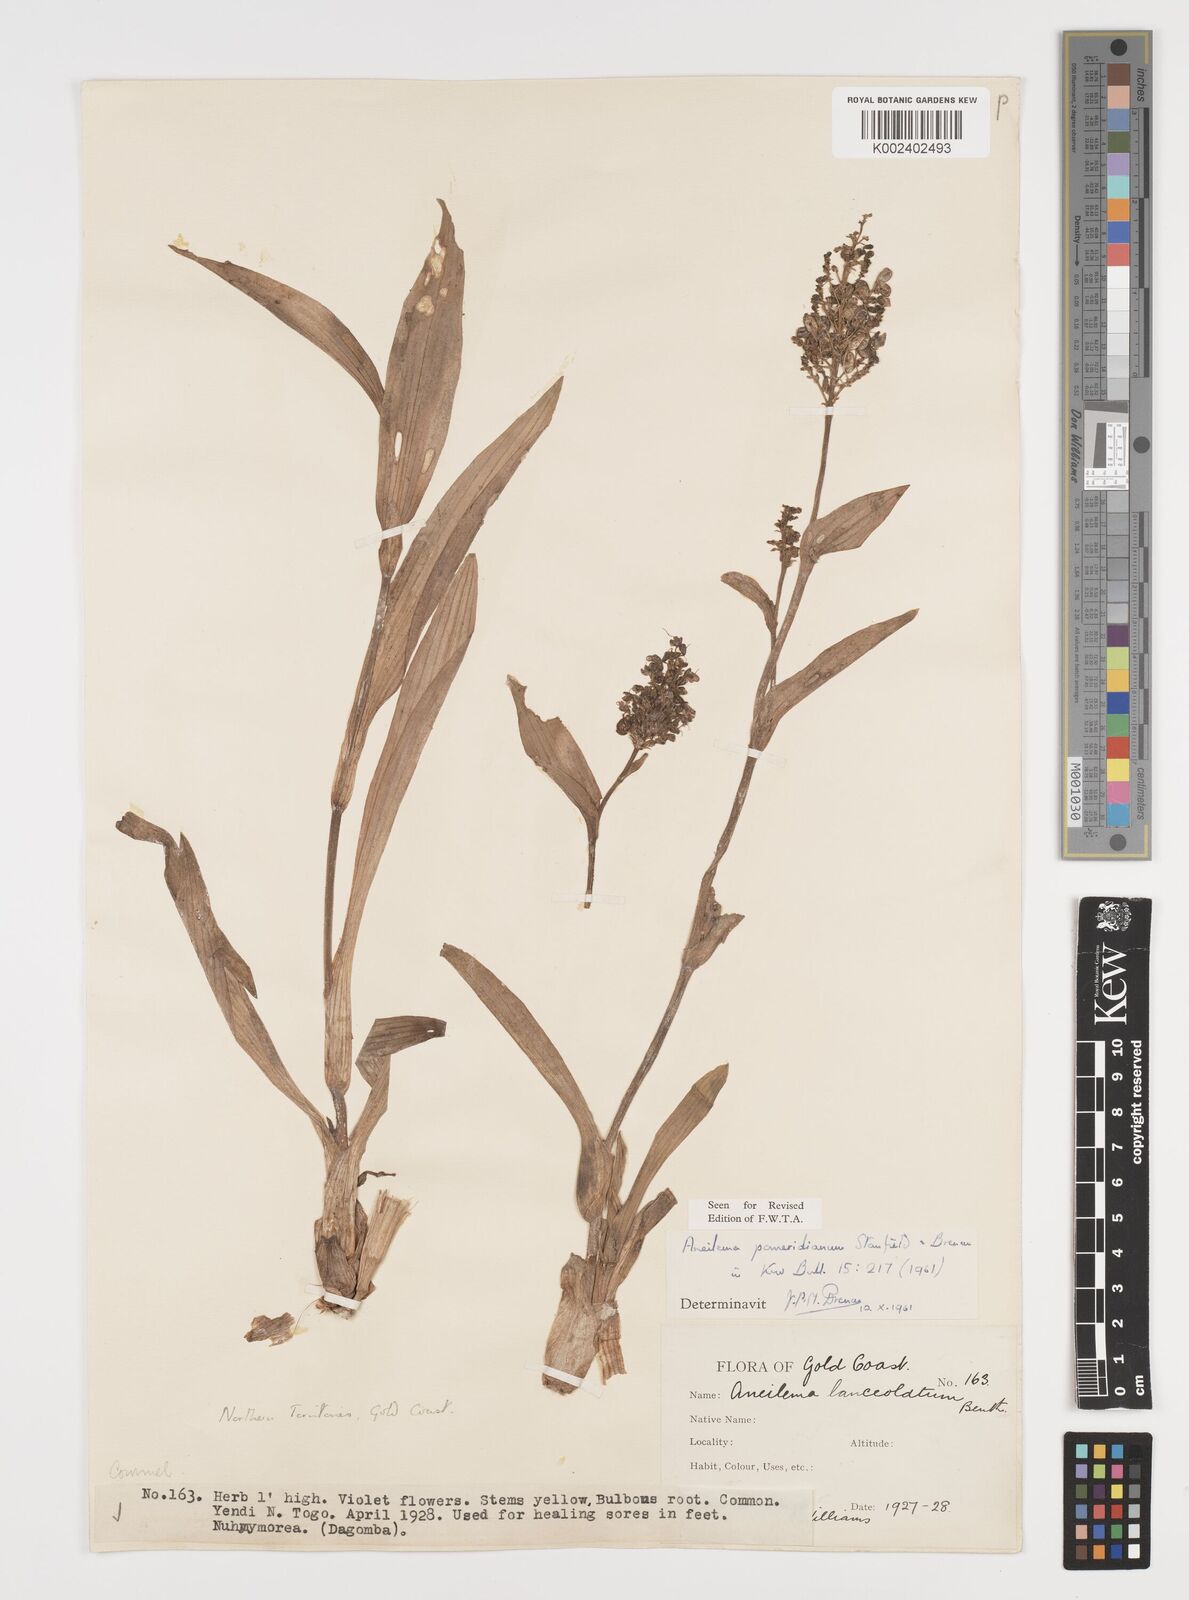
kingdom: Plantae
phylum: Tracheophyta
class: Liliopsida
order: Commelinales
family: Commelinaceae
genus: Aneilema
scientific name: Aneilema pomeridianum
